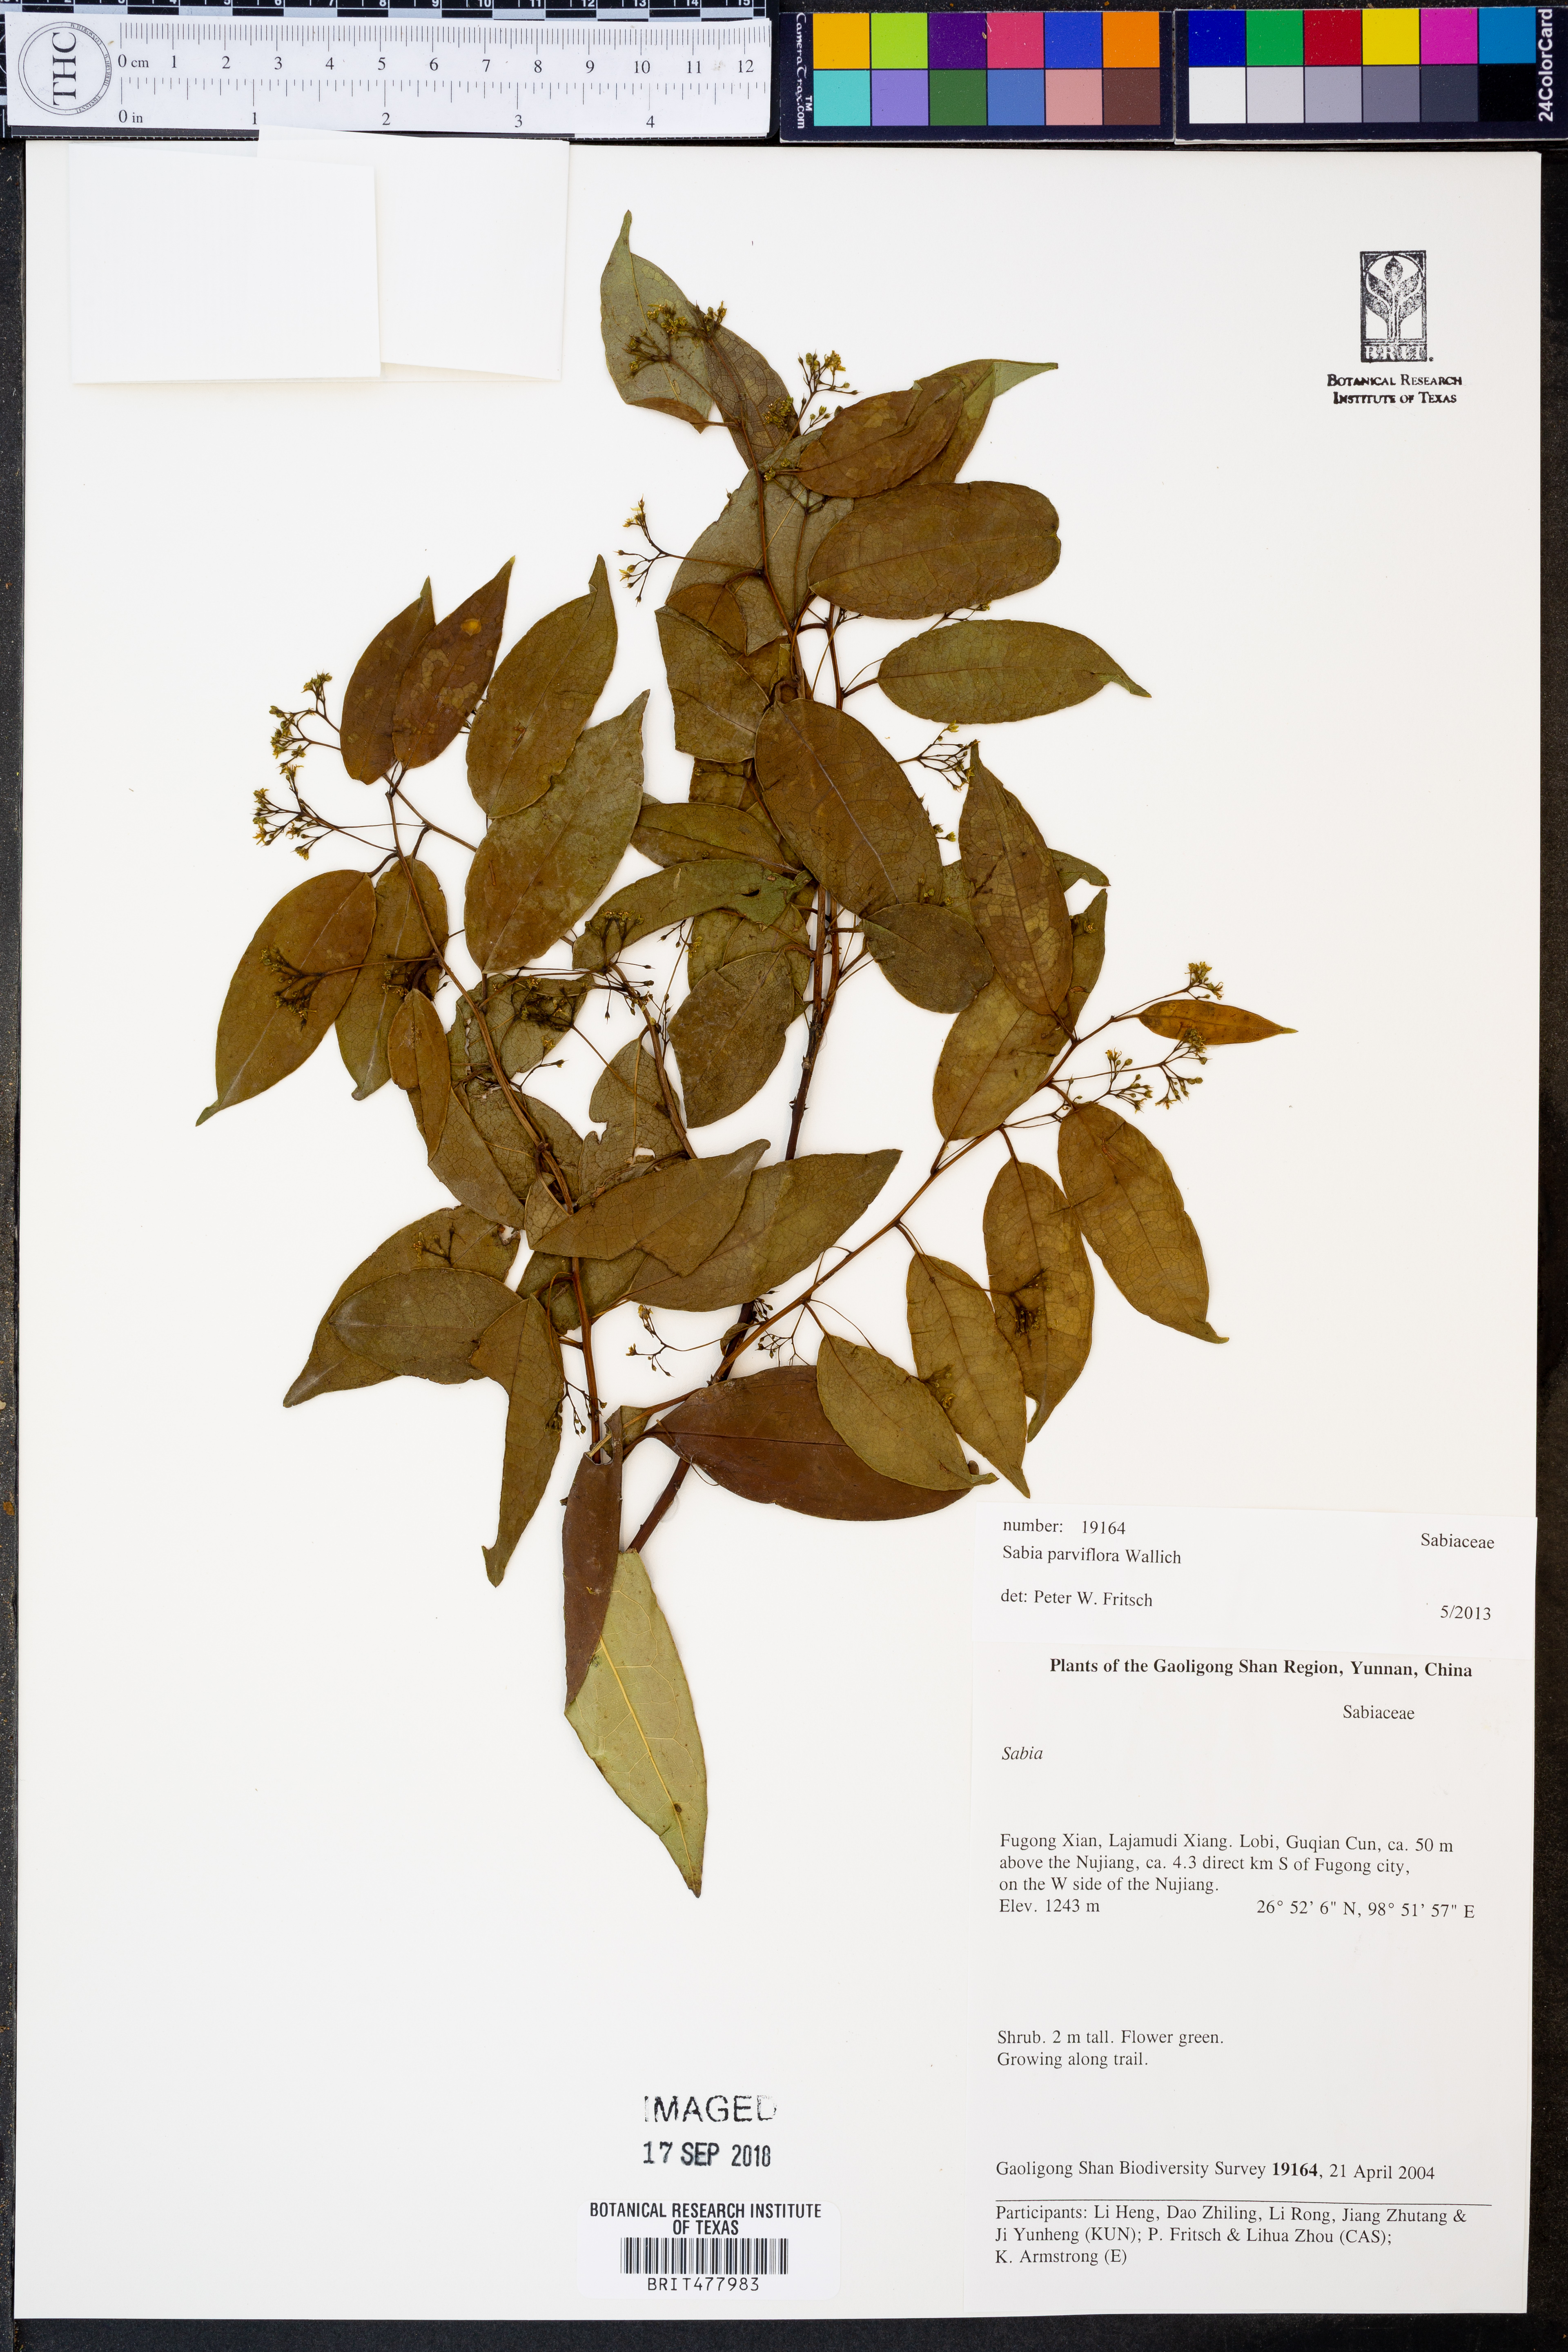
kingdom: Plantae
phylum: Tracheophyta
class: Magnoliopsida
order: Proteales
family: Sabiaceae
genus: Sabia
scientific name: Sabia parviflora
